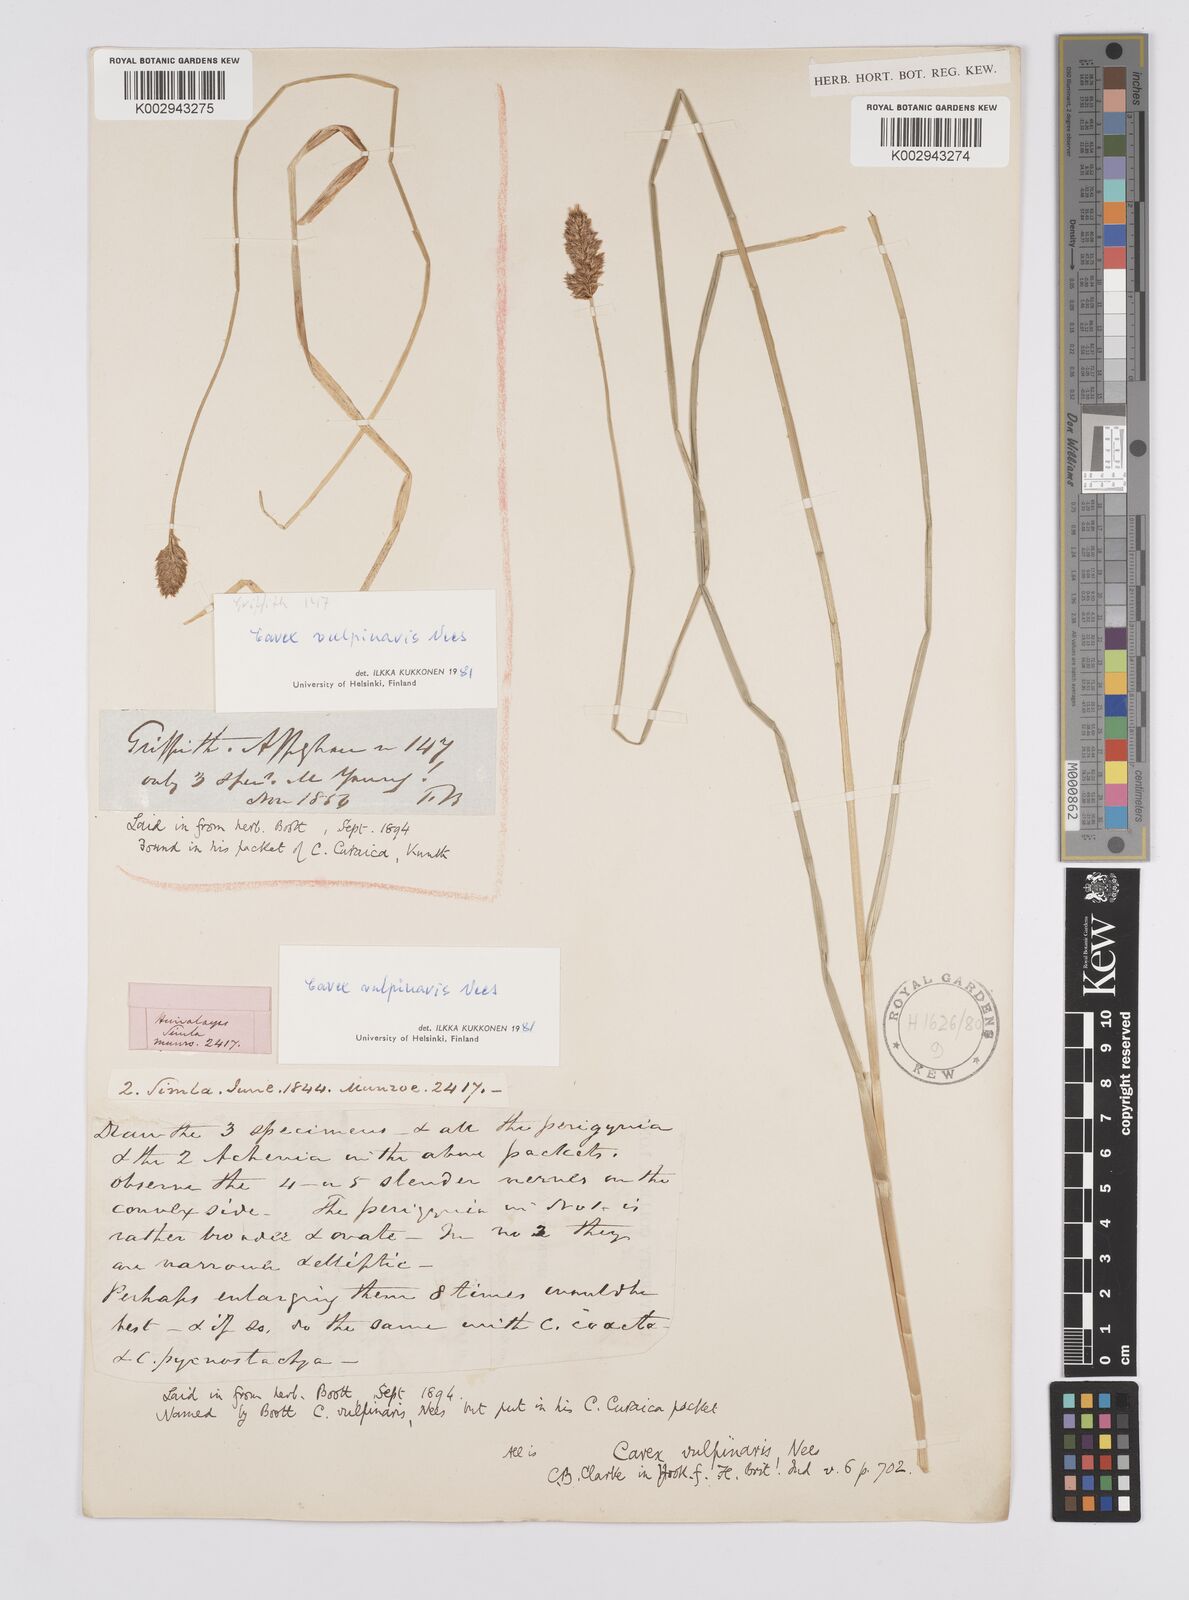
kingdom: Plantae
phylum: Tracheophyta
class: Liliopsida
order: Poales
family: Cyperaceae
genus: Carex
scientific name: Carex vulpinaris
